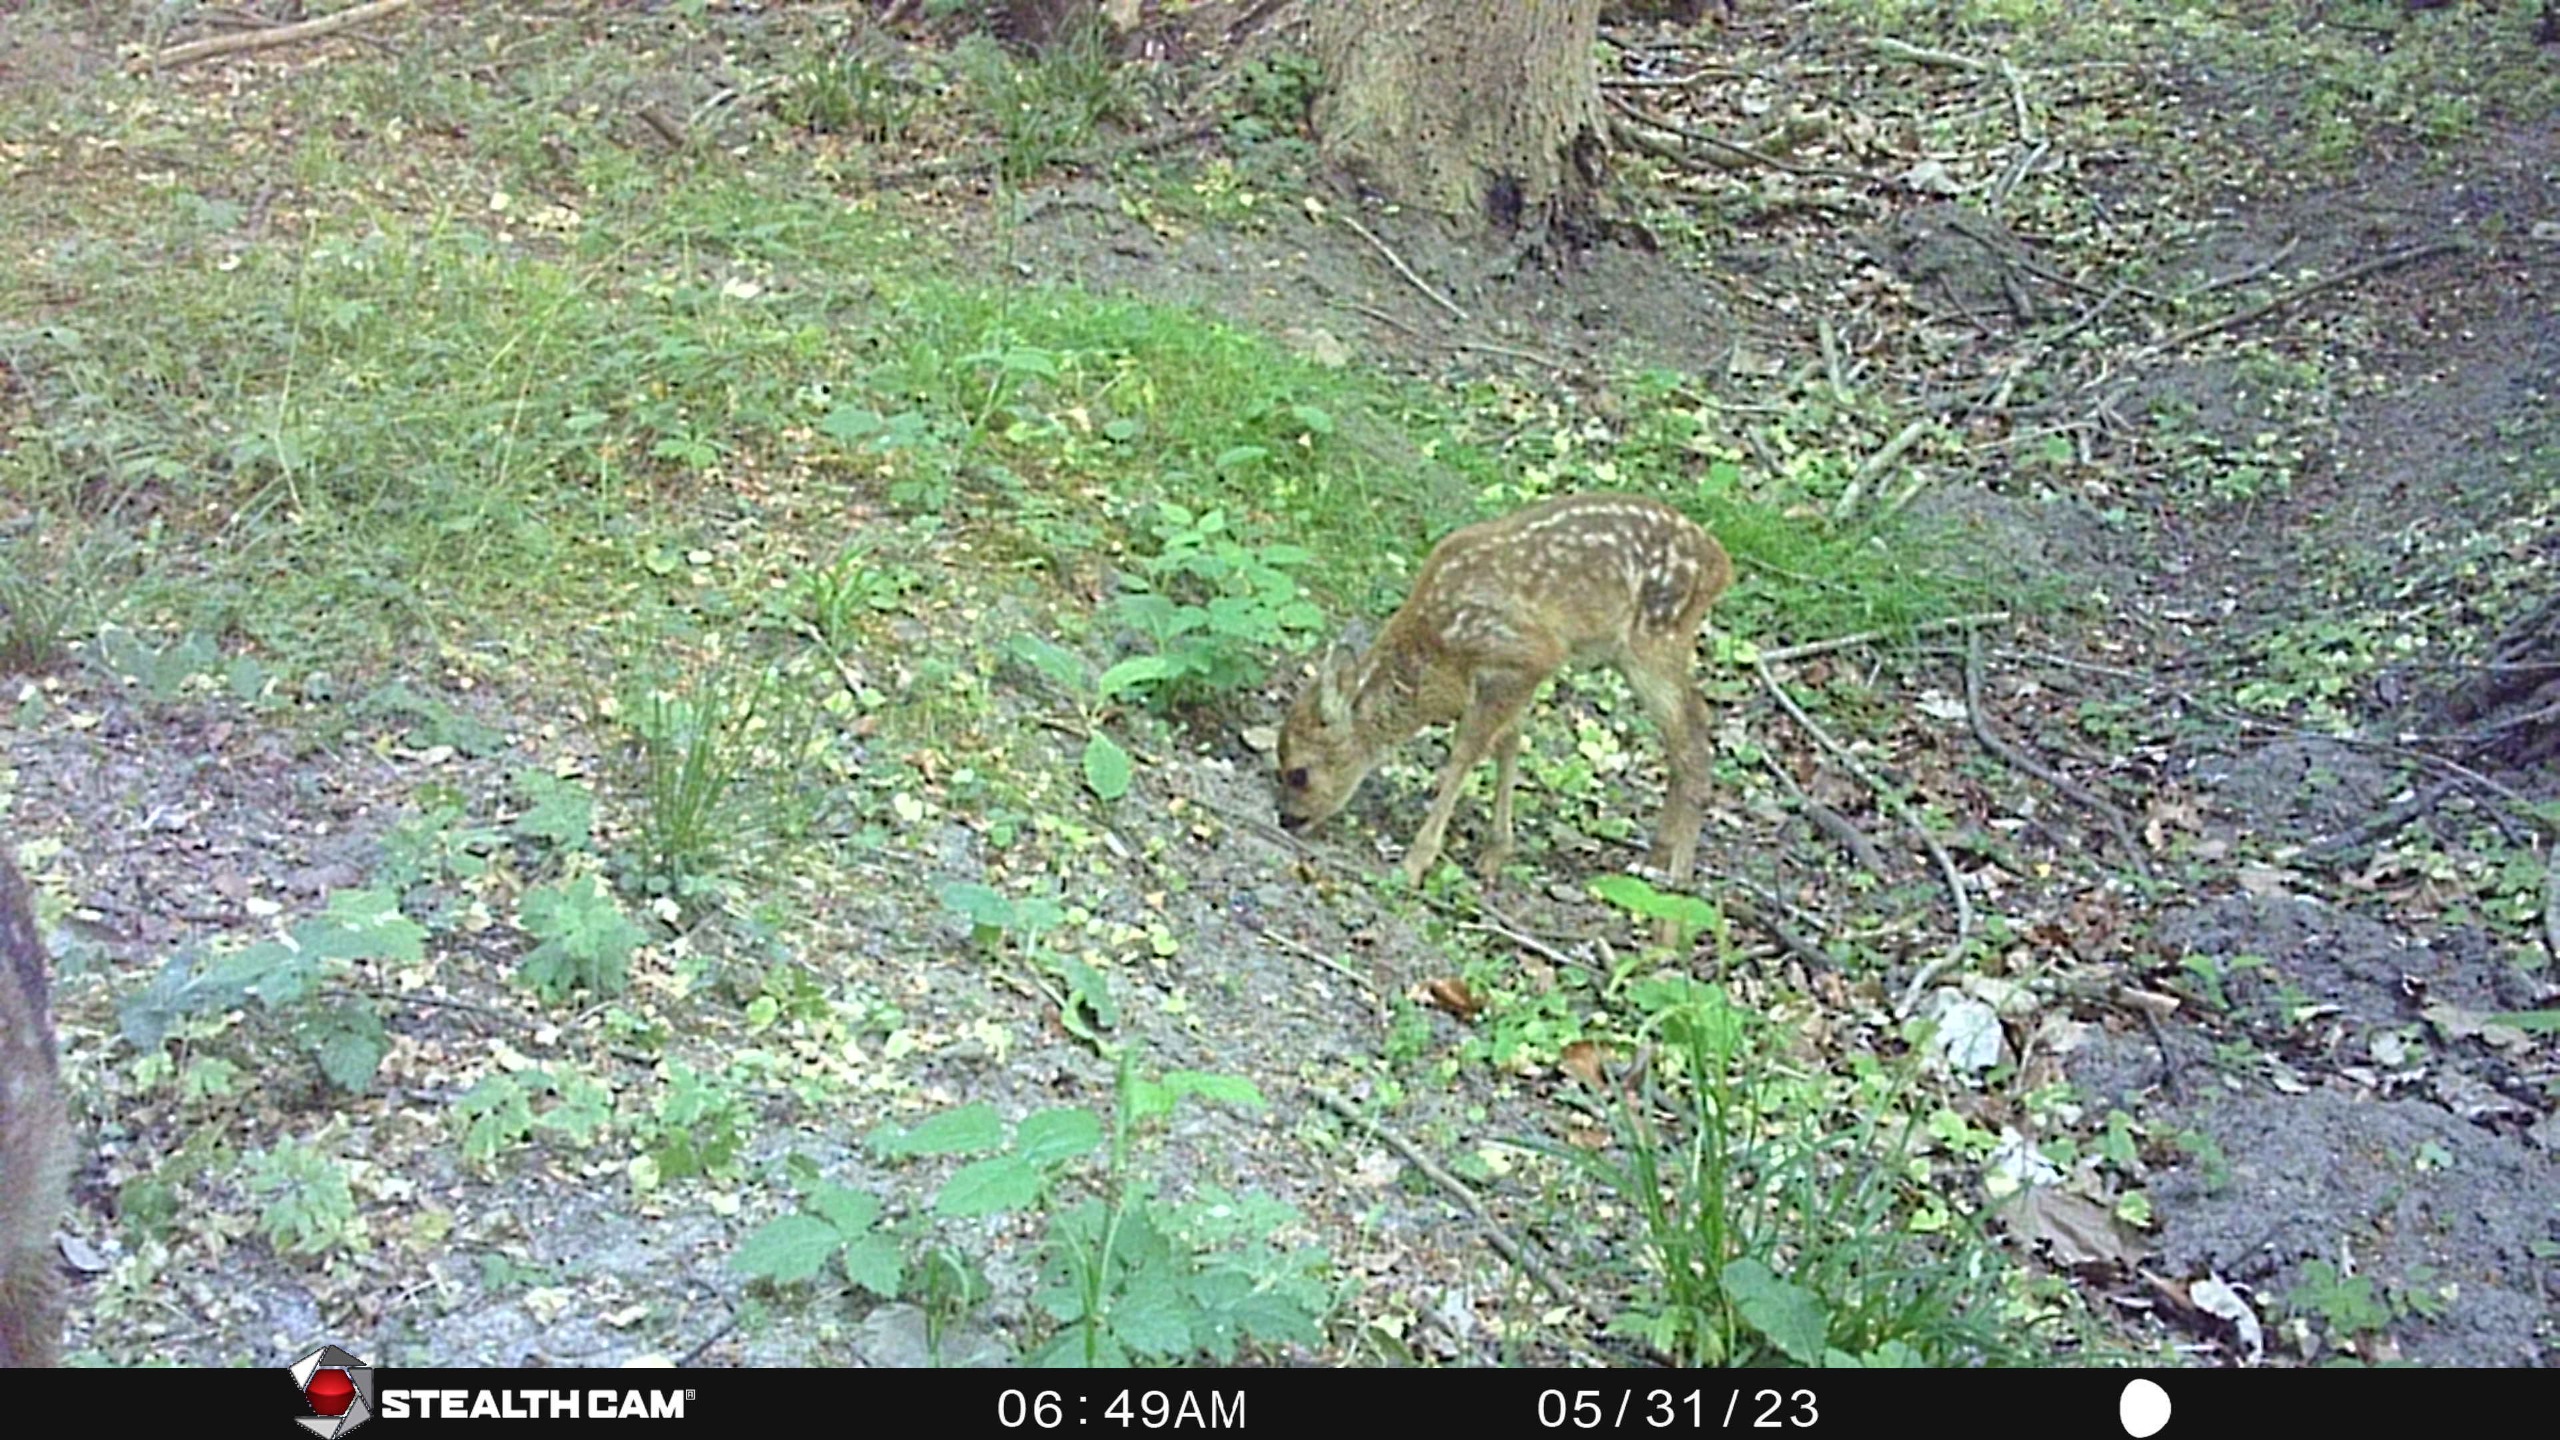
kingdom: Animalia
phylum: Chordata
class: Mammalia
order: Artiodactyla
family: Cervidae
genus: Capreolus
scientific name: Capreolus capreolus
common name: Rådyr
